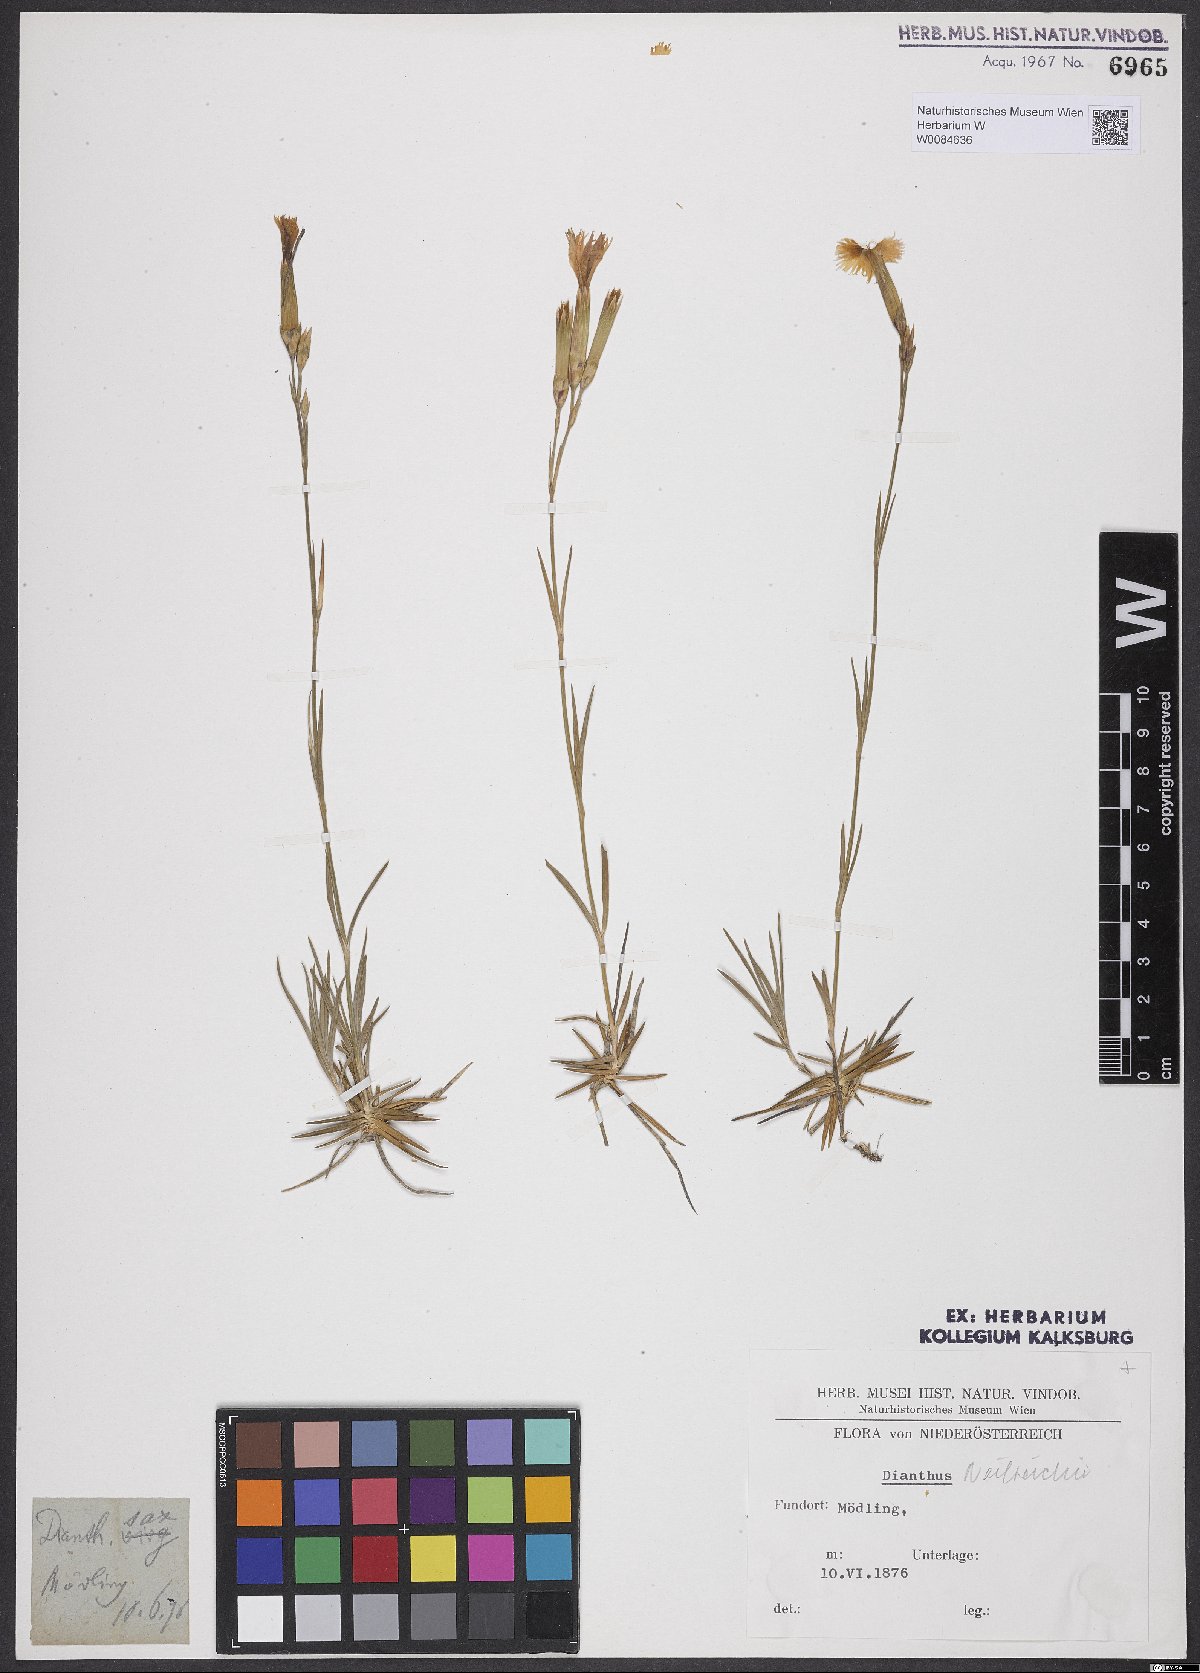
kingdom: Plantae
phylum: Tracheophyta
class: Magnoliopsida
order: Caryophyllales
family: Caryophyllaceae
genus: Dianthus
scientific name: Dianthus plumarius
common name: Pink
